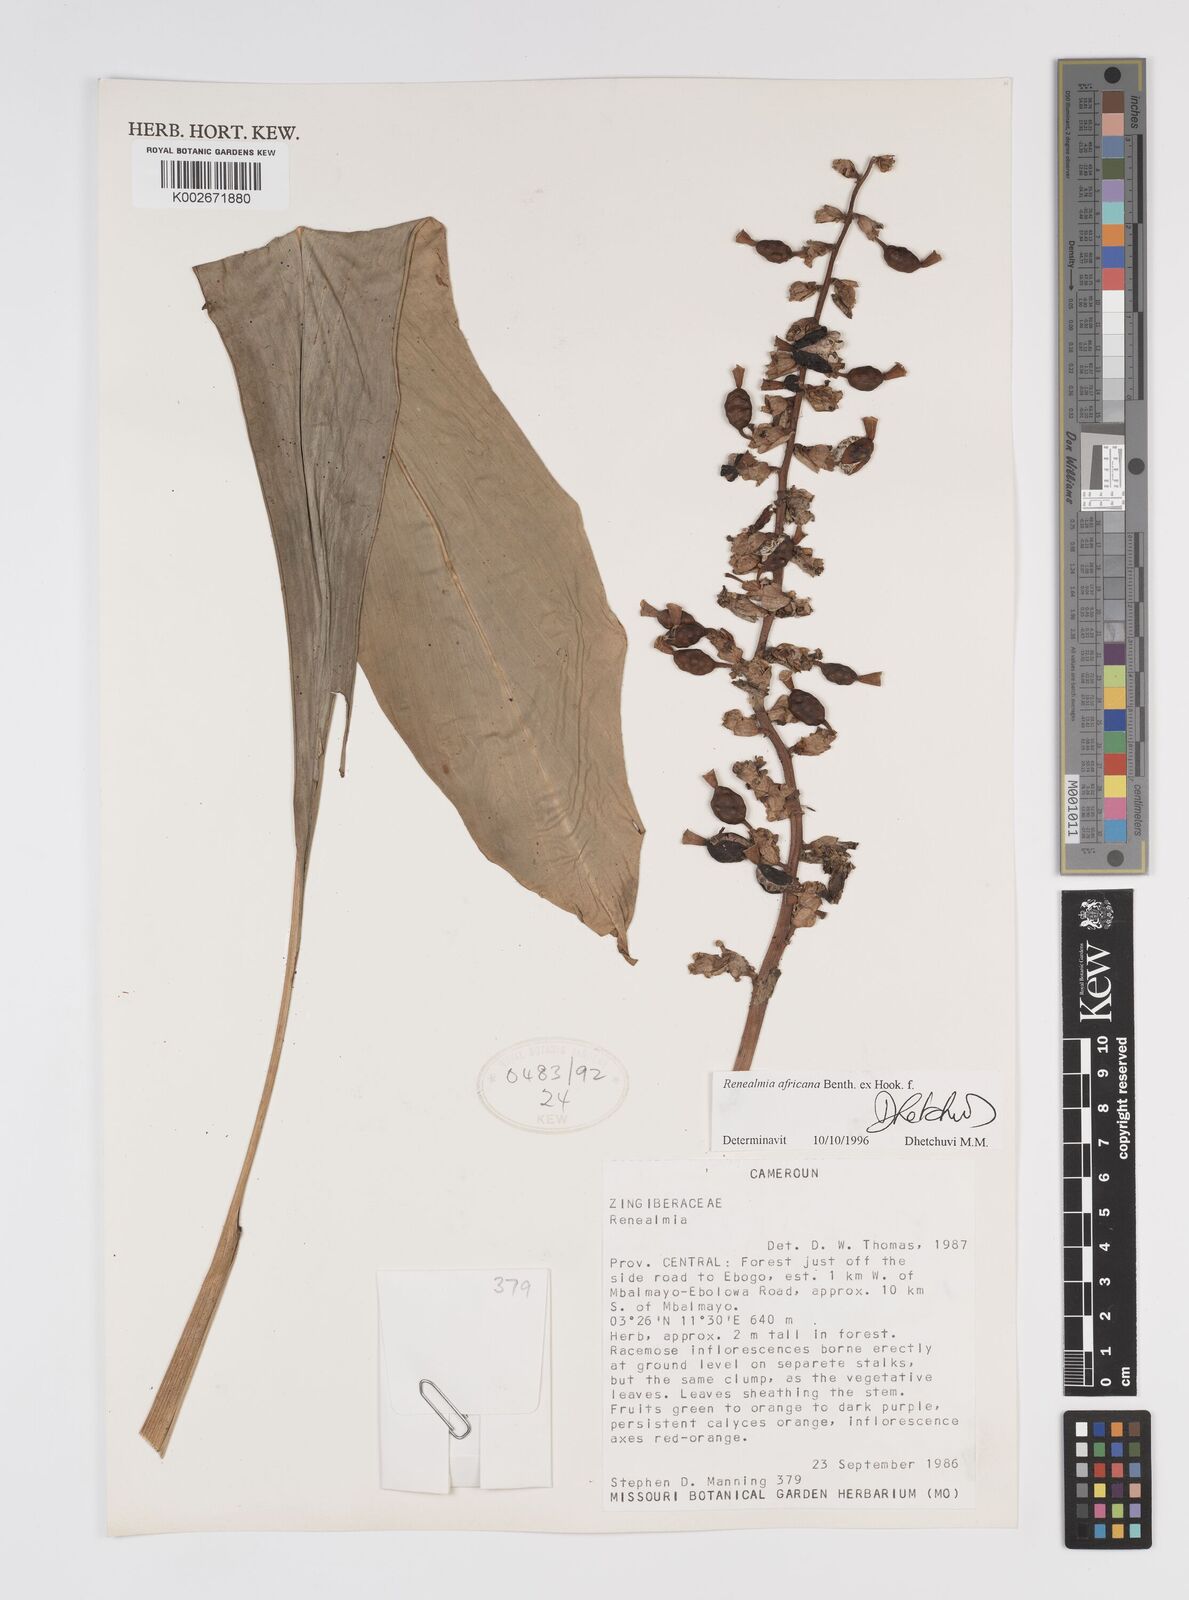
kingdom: Plantae
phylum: Tracheophyta
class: Liliopsida
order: Zingiberales
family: Zingiberaceae
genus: Renealmia
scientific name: Renealmia africana
